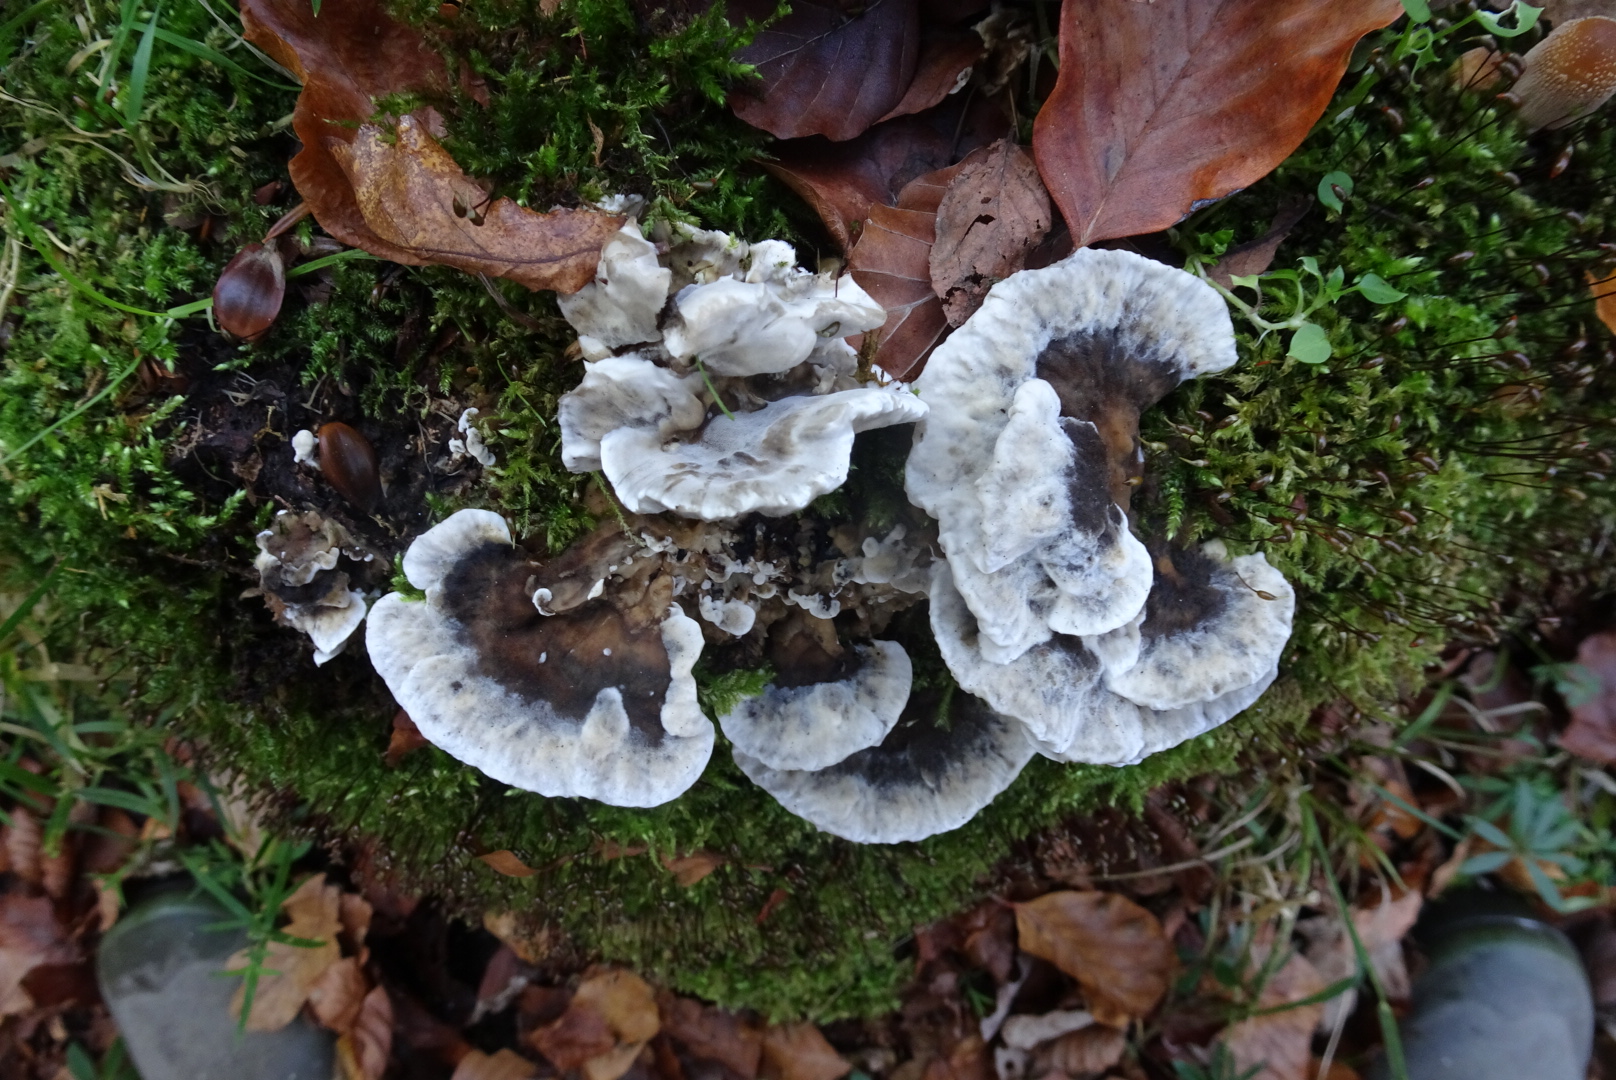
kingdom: Fungi
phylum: Basidiomycota
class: Agaricomycetes
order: Polyporales
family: Phanerochaetaceae
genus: Bjerkandera
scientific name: Bjerkandera adusta
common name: sveden sodporesvamp
